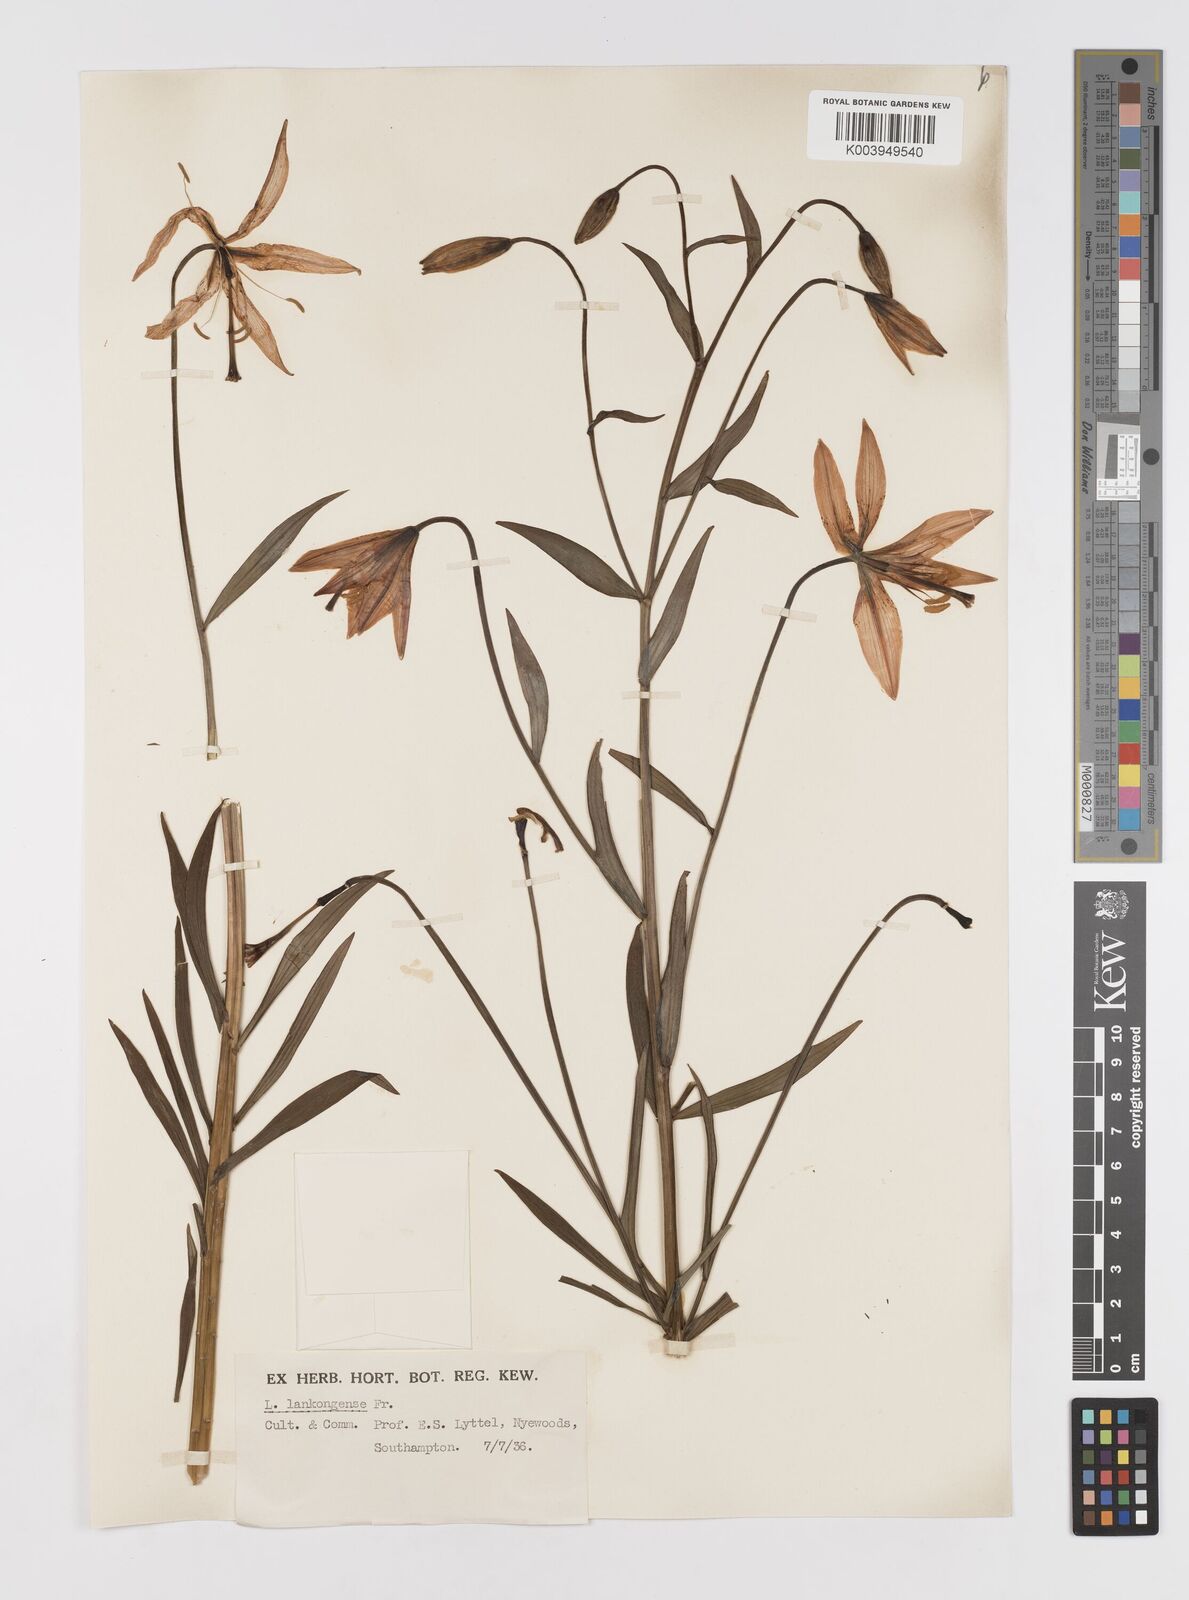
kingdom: Plantae
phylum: Tracheophyta
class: Liliopsida
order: Liliales
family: Liliaceae
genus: Lilium
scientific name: Lilium medeoloides
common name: Wheel lily
